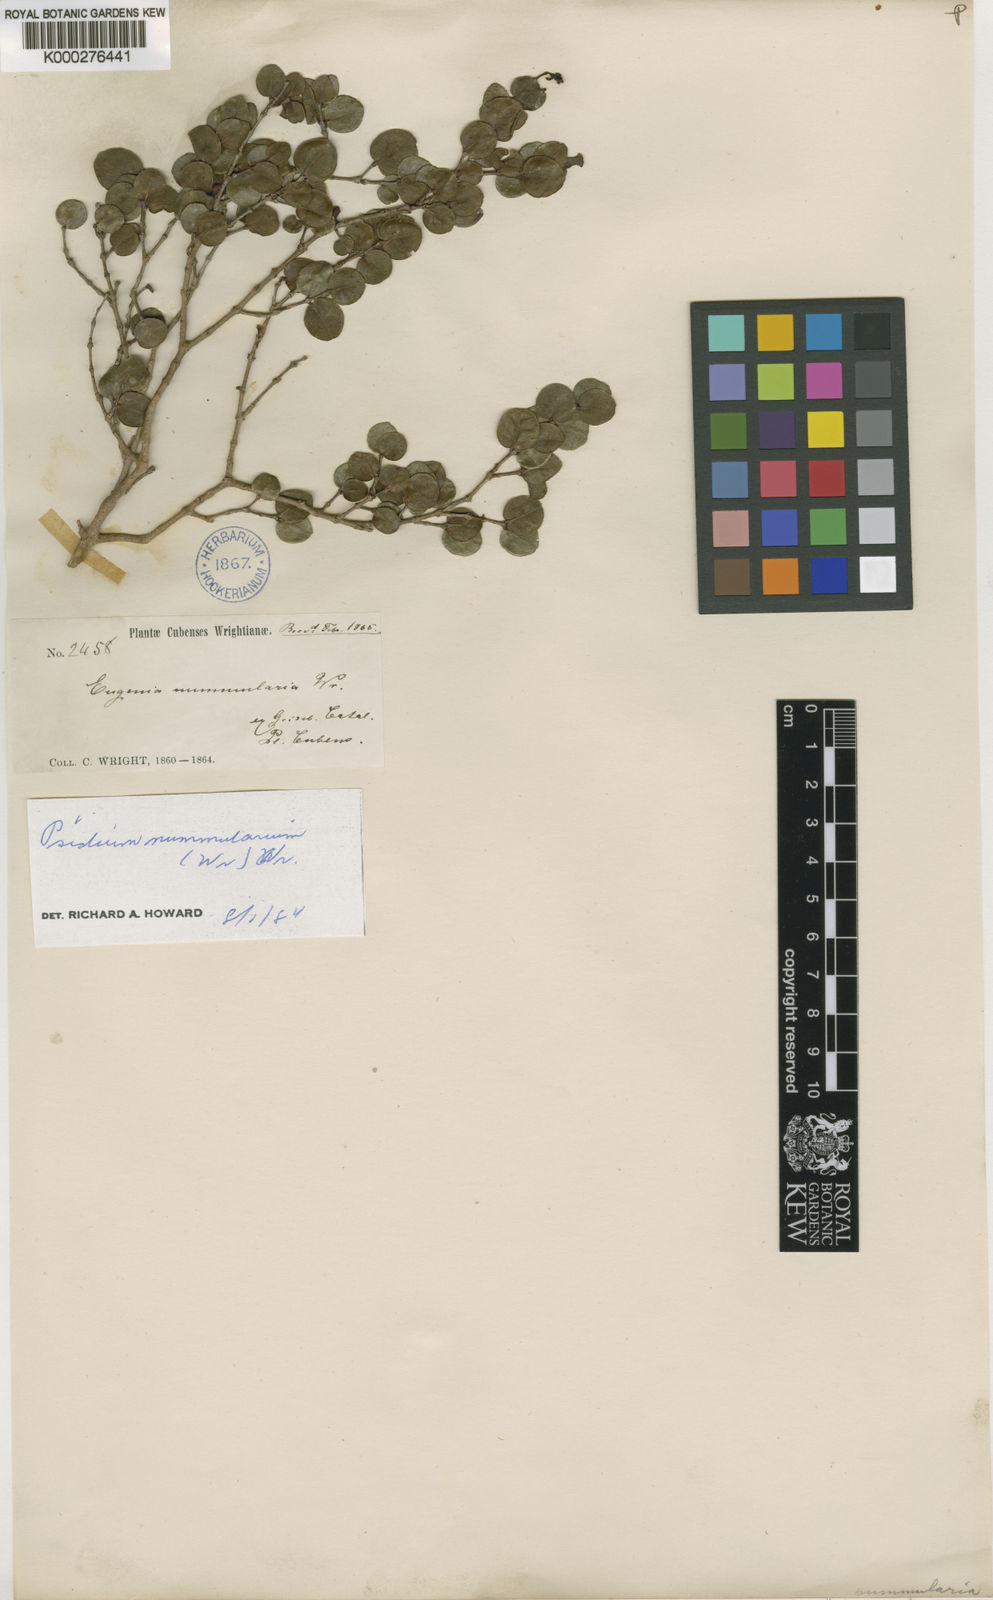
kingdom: Plantae
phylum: Tracheophyta
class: Magnoliopsida
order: Myrtales
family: Myrtaceae
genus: Psidium
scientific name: Psidium nummularia
